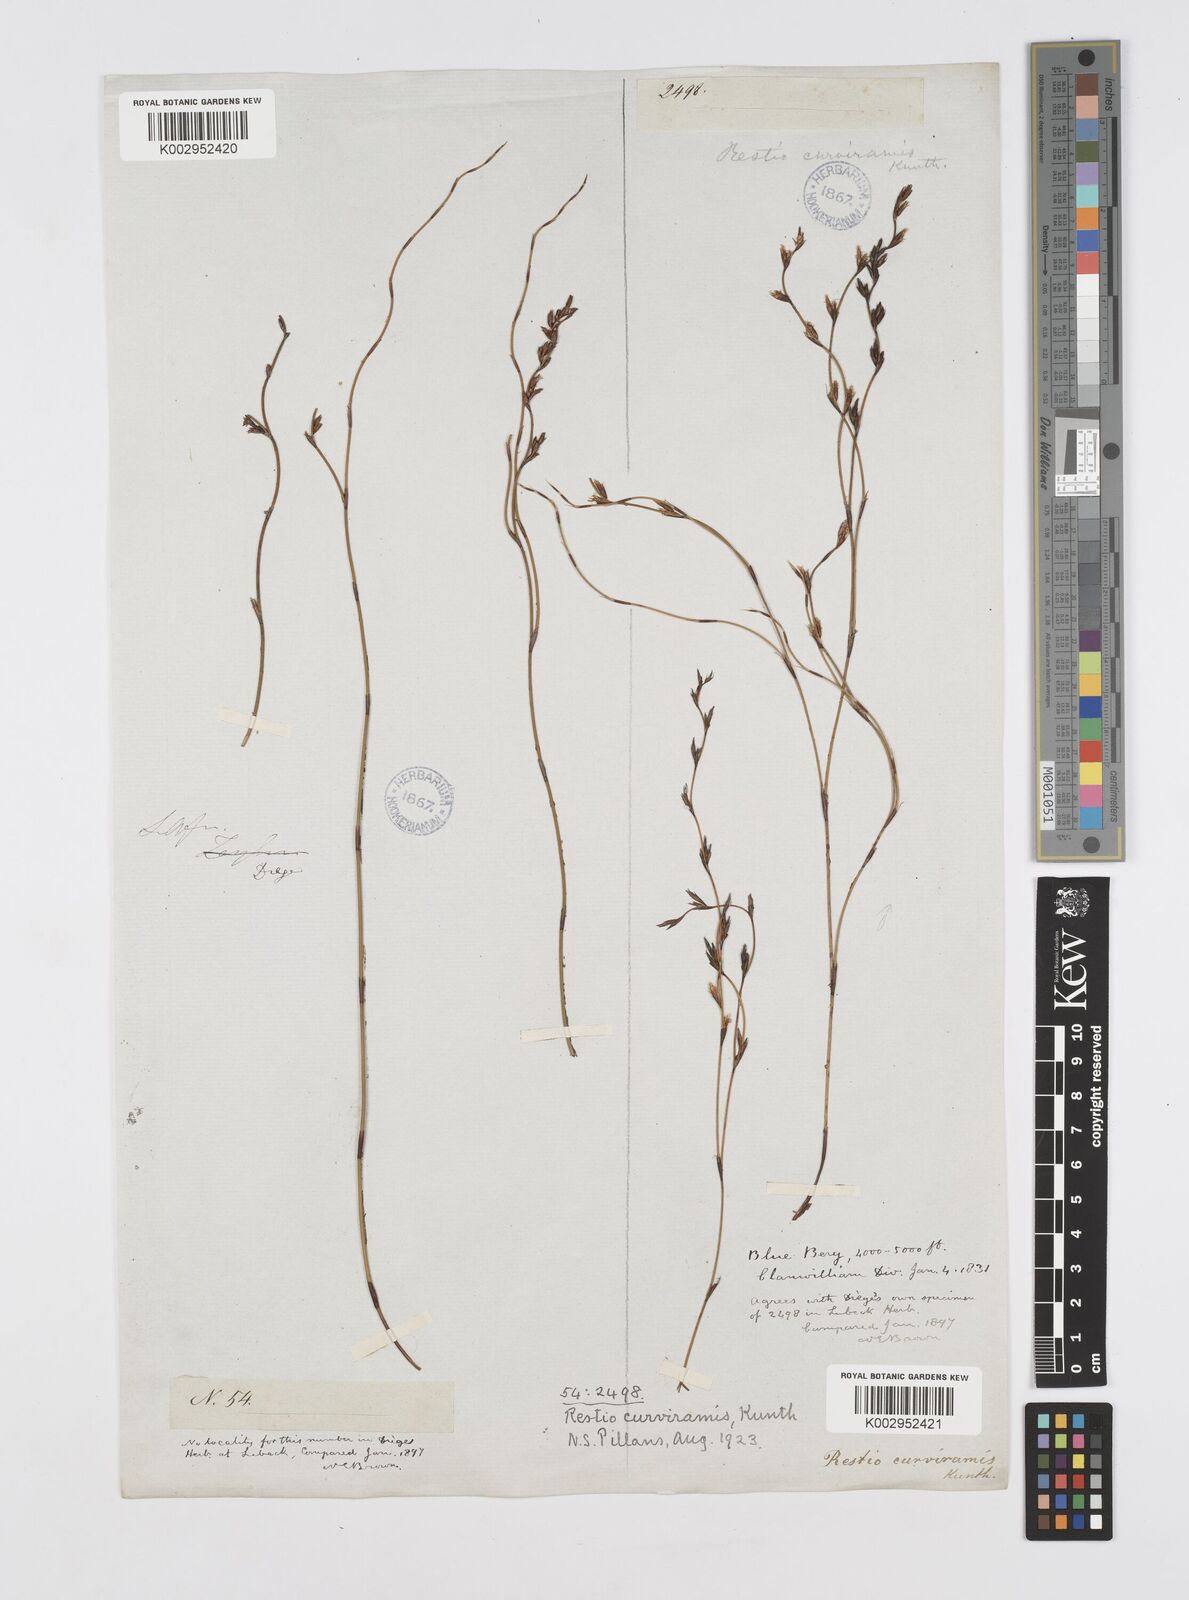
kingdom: Plantae
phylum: Tracheophyta
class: Liliopsida
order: Poales
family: Restionaceae
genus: Restio
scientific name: Restio curviramis
